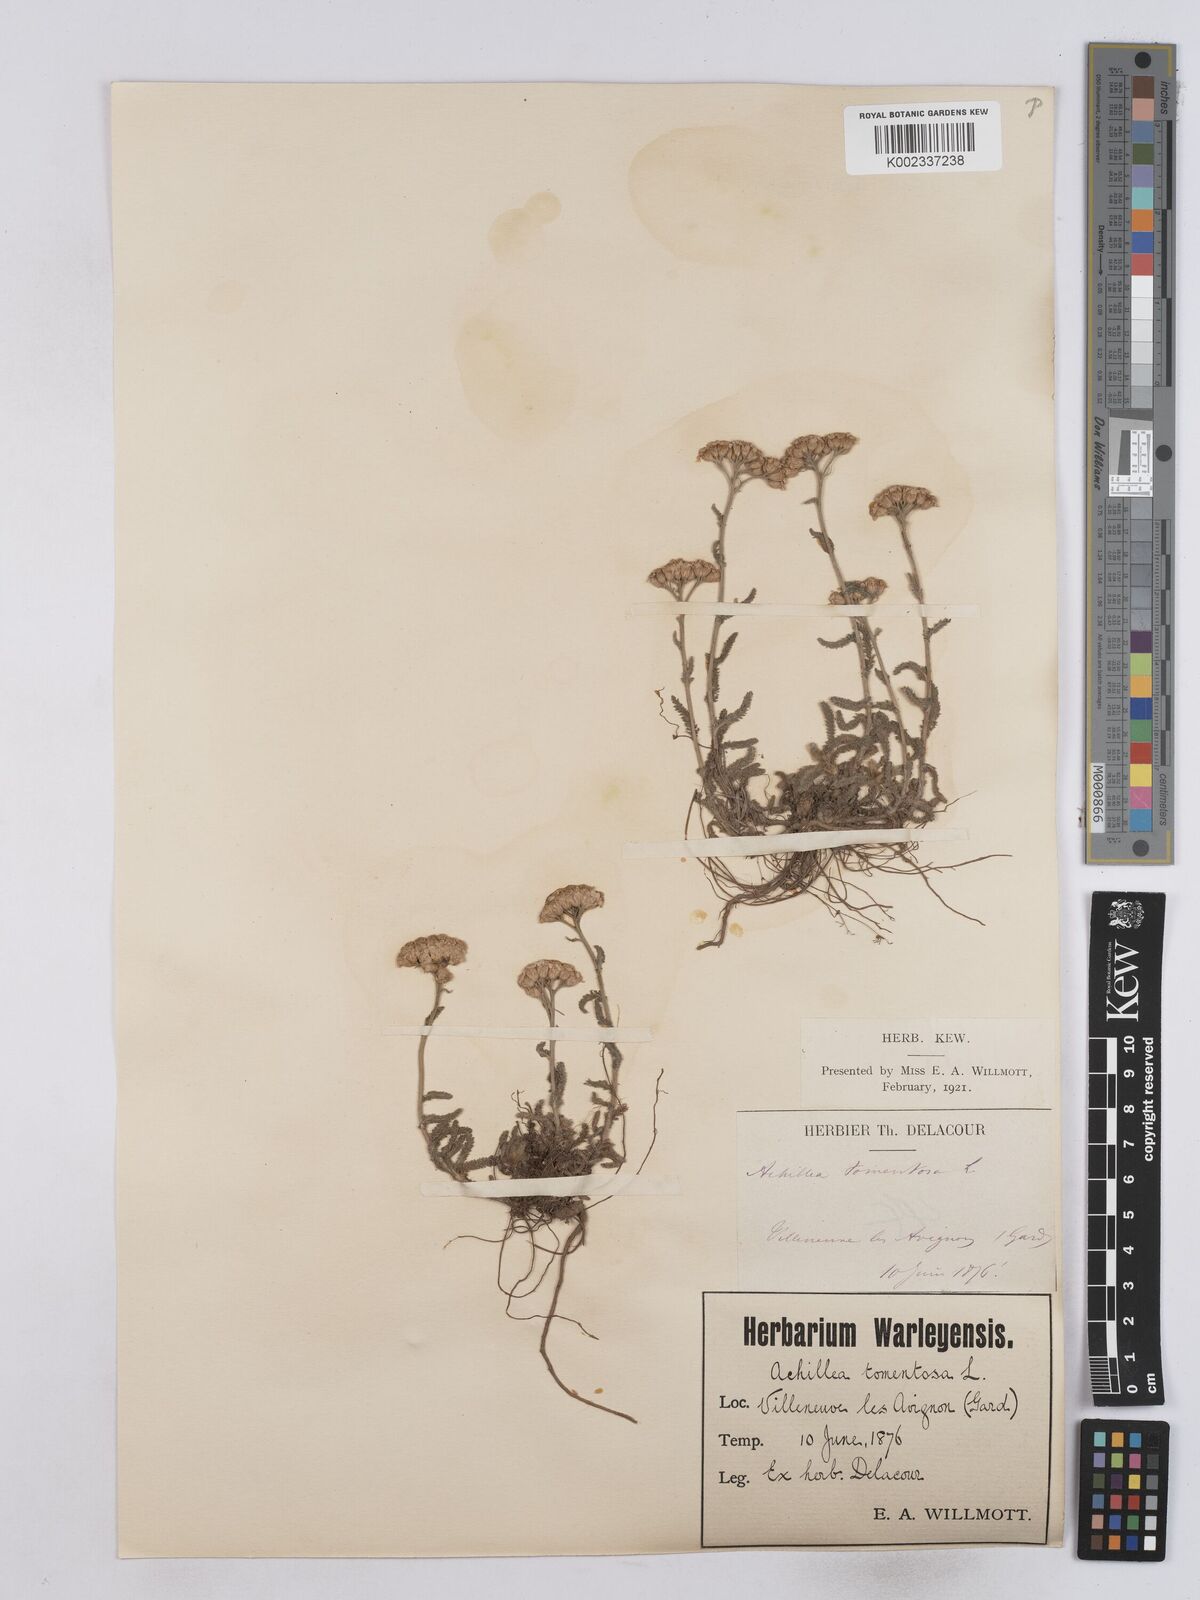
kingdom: Plantae
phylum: Tracheophyta
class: Magnoliopsida
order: Asterales
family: Asteraceae
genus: Achillea
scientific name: Achillea tomentosa
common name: Yellow milfoil
